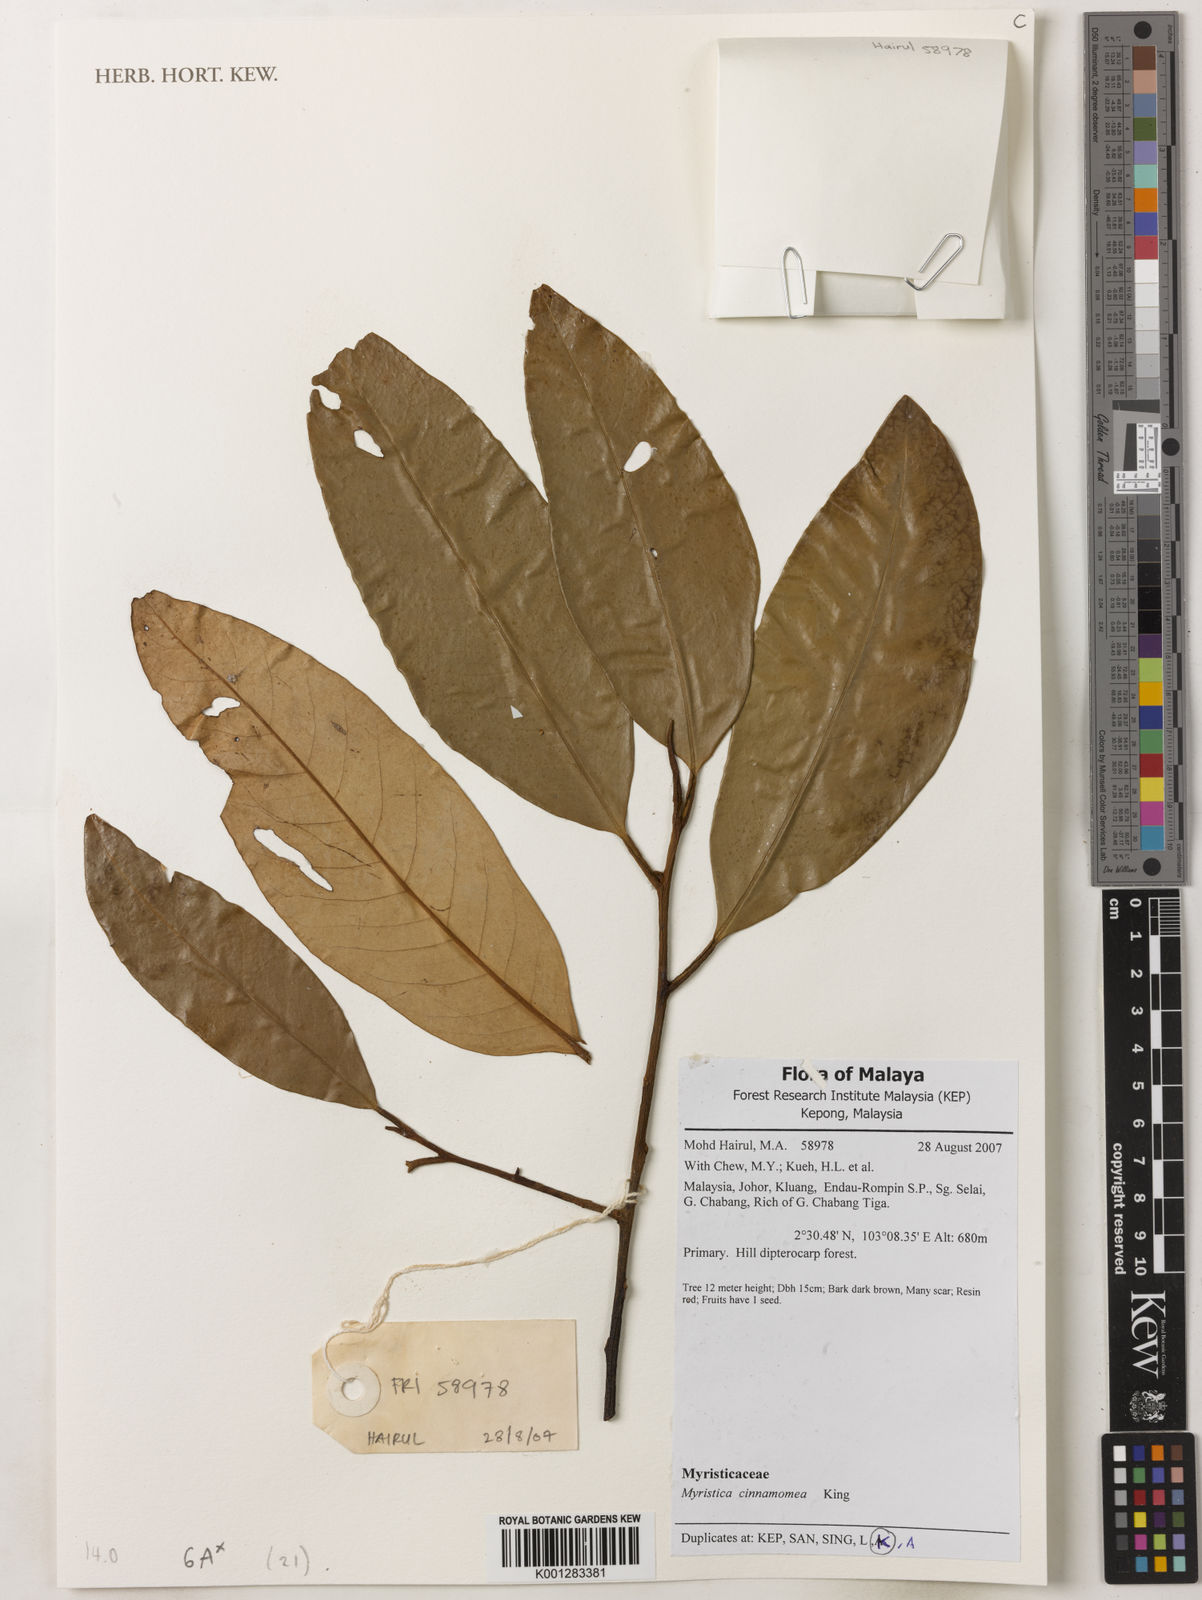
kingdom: Plantae
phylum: Tracheophyta
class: Magnoliopsida
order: Magnoliales
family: Myristicaceae
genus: Myristica
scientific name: Myristica cinnamomea
